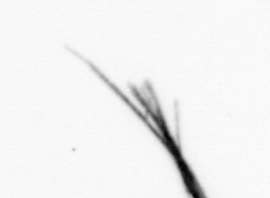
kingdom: Bacteria
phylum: Cyanobacteria
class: Cyanobacteriia
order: Cyanobacteriales
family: Microcoleaceae
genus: Trichodesmium
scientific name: Trichodesmium
